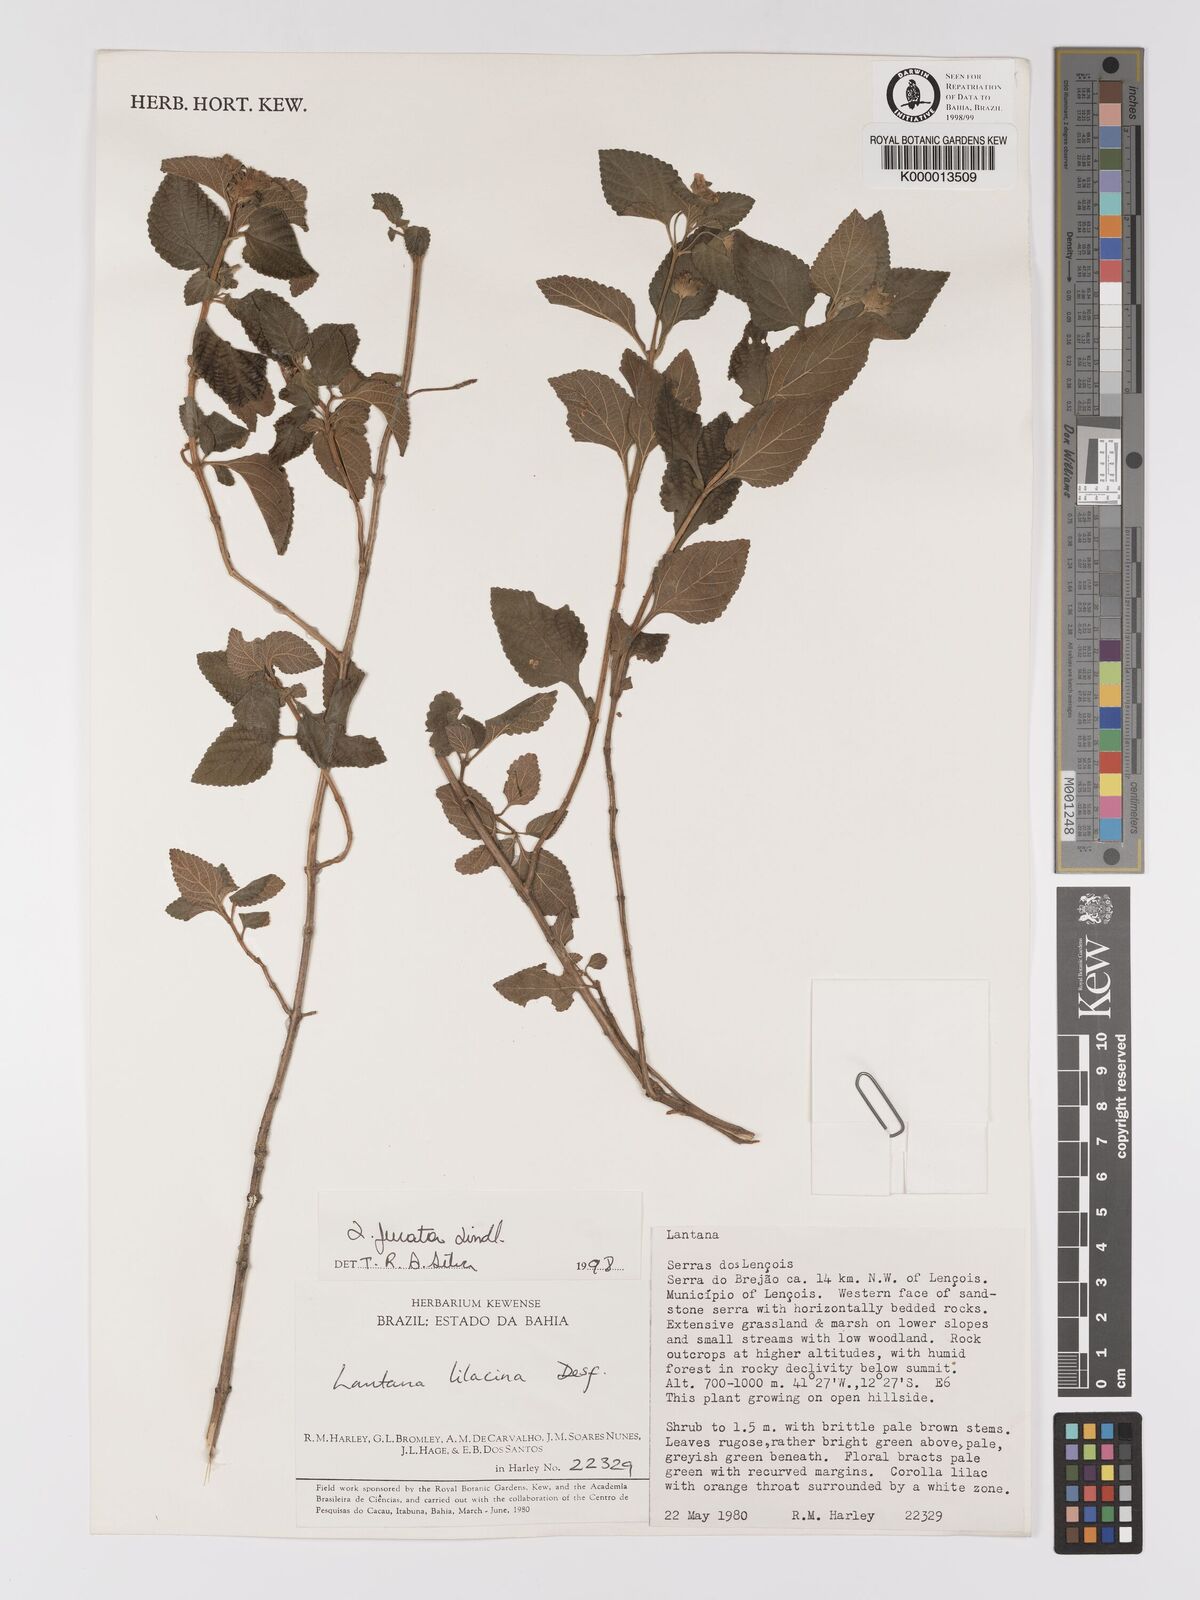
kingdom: Plantae
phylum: Tracheophyta
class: Magnoliopsida
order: Lamiales
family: Verbenaceae
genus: Lantana
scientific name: Lantana fucata
